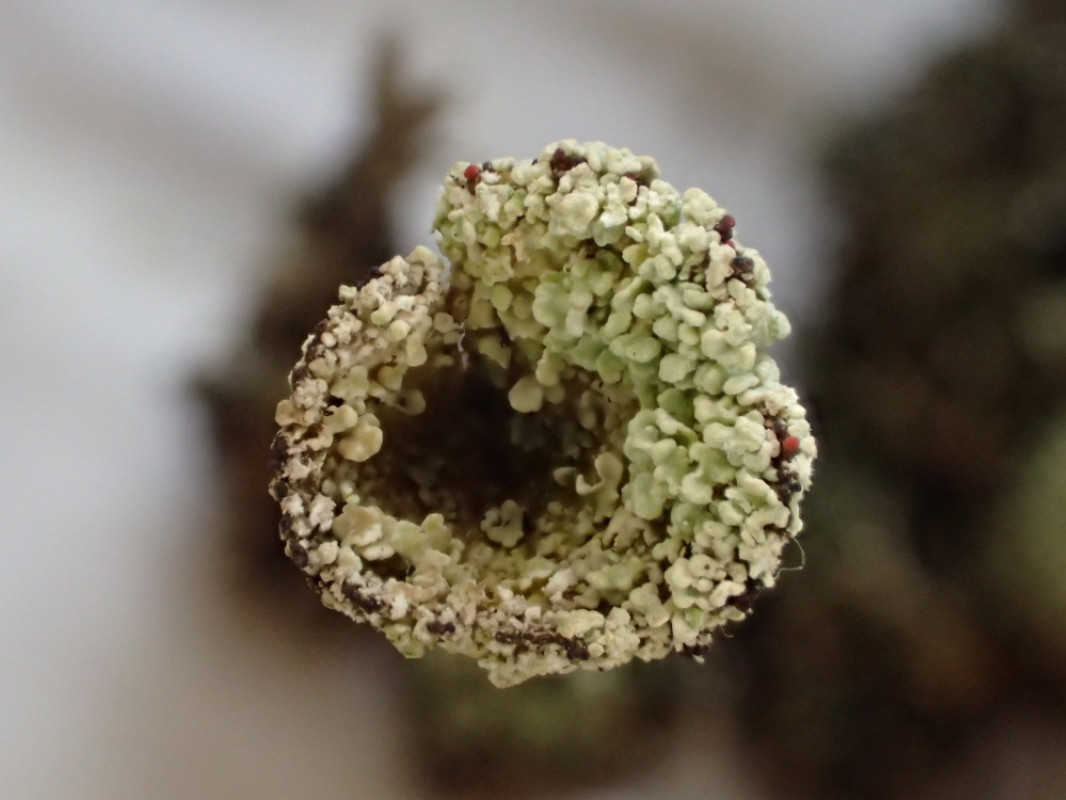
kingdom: Fungi
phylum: Ascomycota
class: Lecanoromycetes
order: Lecanorales
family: Cladoniaceae
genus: Cladonia
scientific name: Cladonia borealis
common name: nordlig bægerlav
